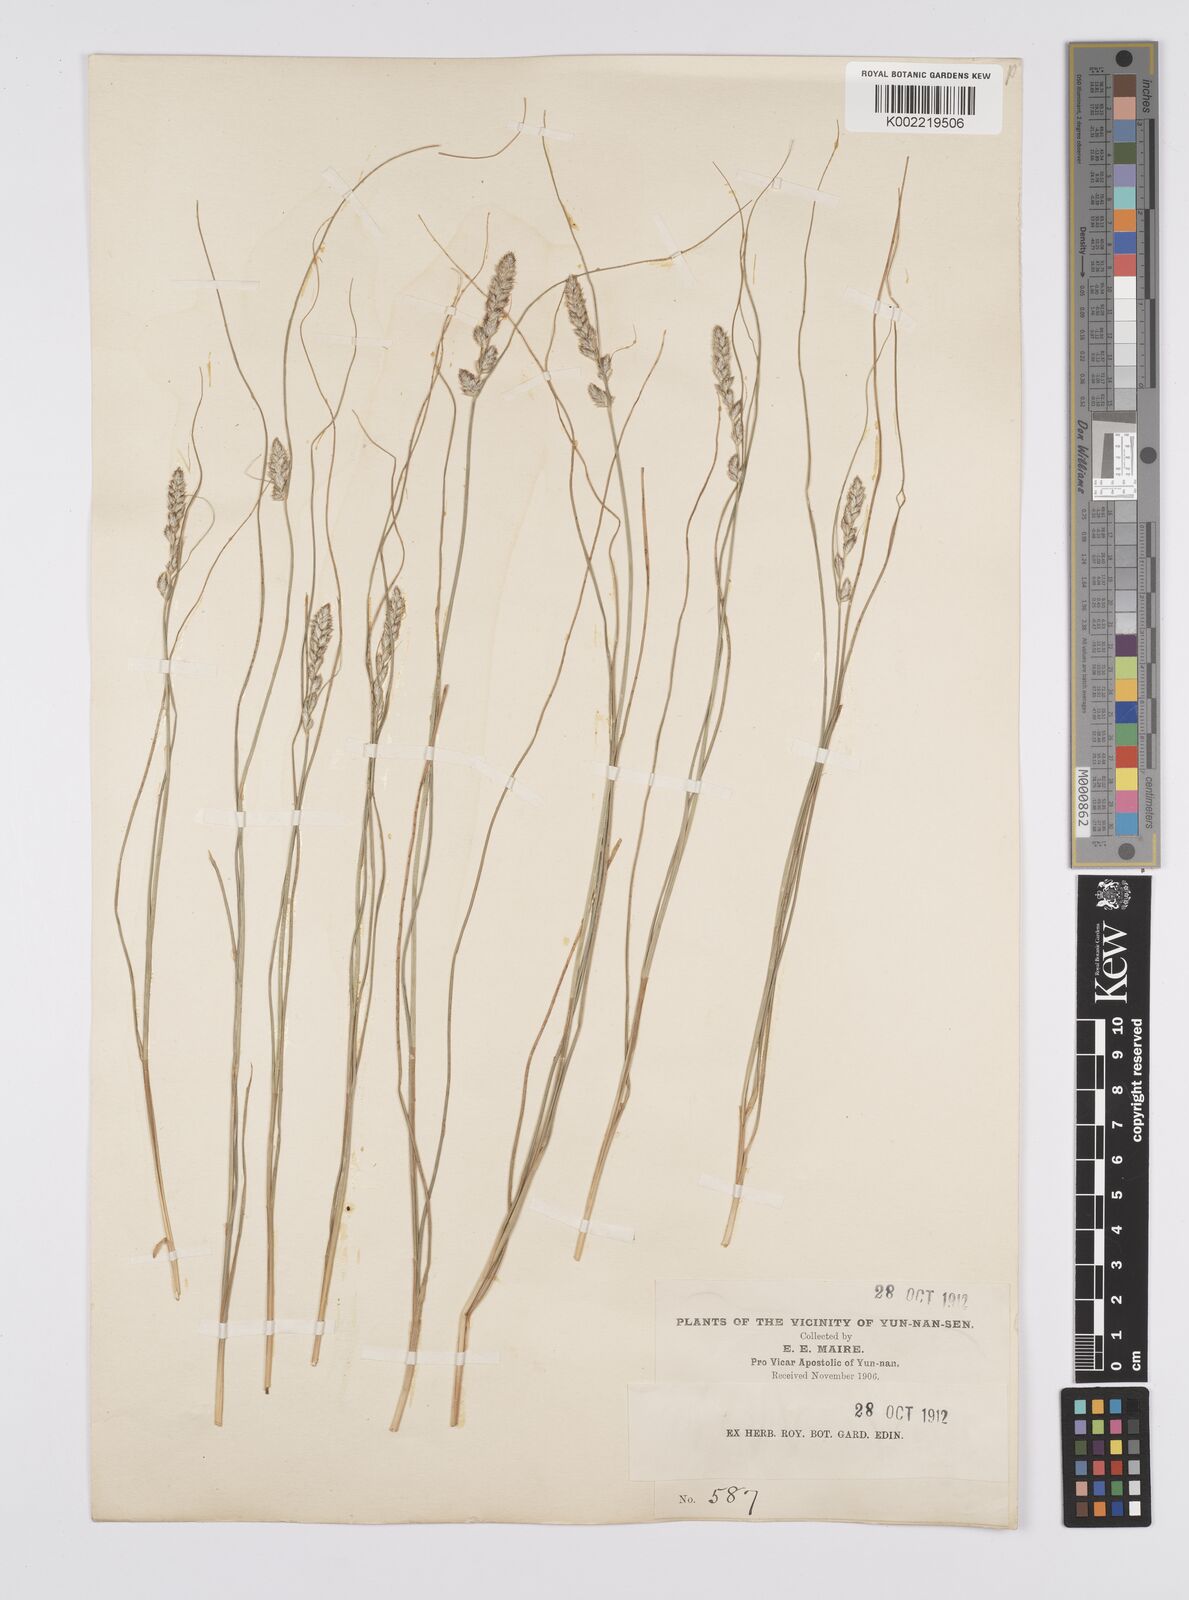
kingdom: Plantae
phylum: Tracheophyta
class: Liliopsida
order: Poales
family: Cyperaceae
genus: Carex
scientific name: Carex nubigena
